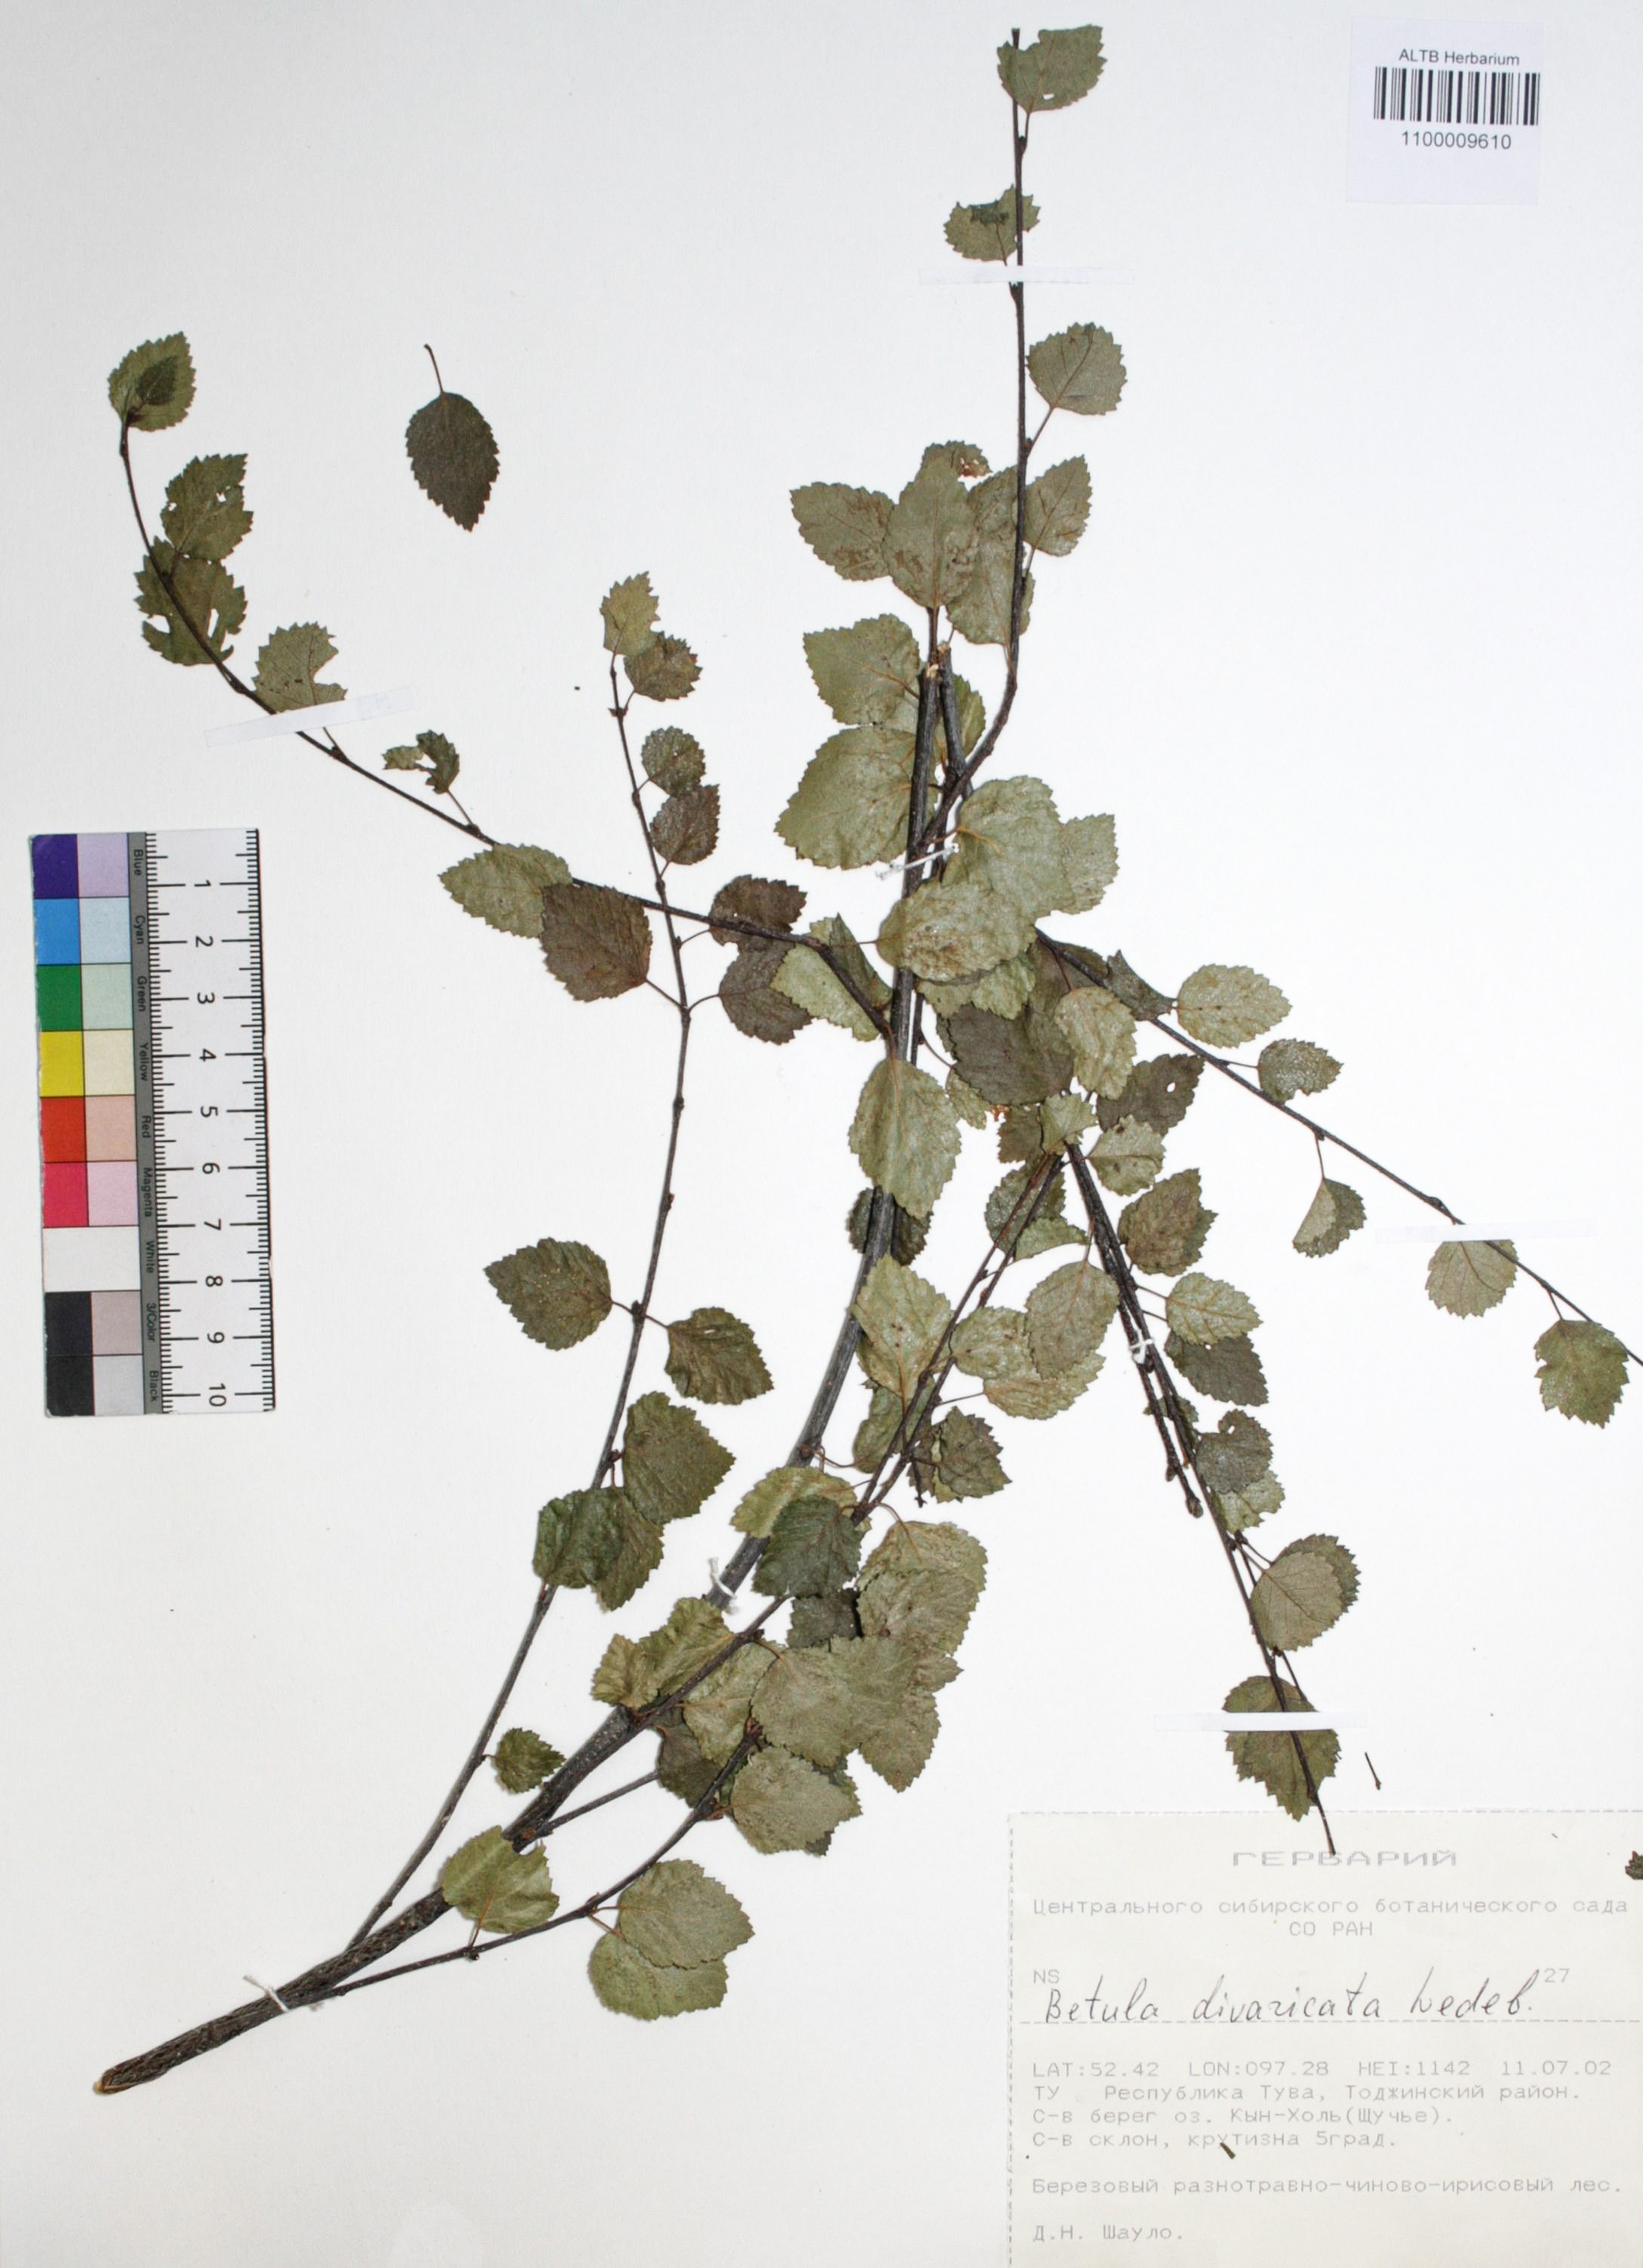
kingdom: Plantae
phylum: Tracheophyta
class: Magnoliopsida
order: Fagales
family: Betulaceae
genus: Betula
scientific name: Betula fruticosa
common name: Japanese bog birch
